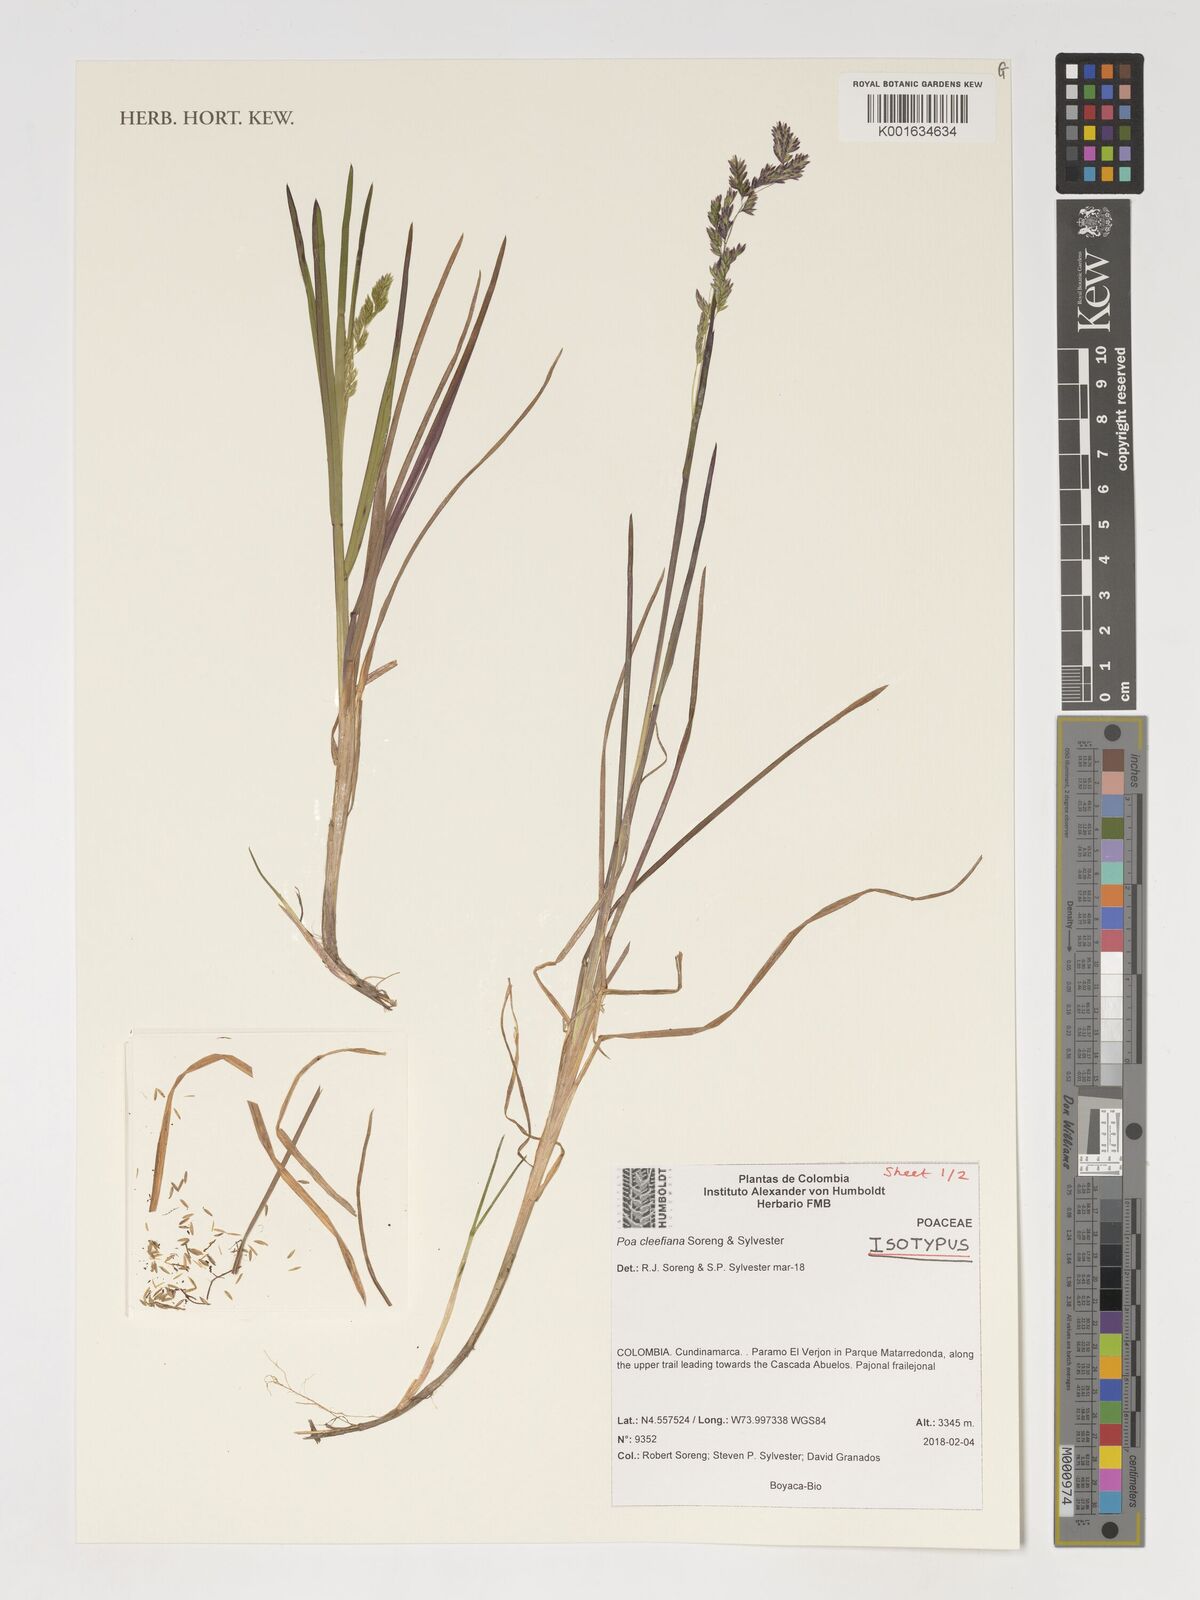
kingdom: Plantae
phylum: Tracheophyta
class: Liliopsida
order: Poales
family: Poaceae
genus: Poa
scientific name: Poa
